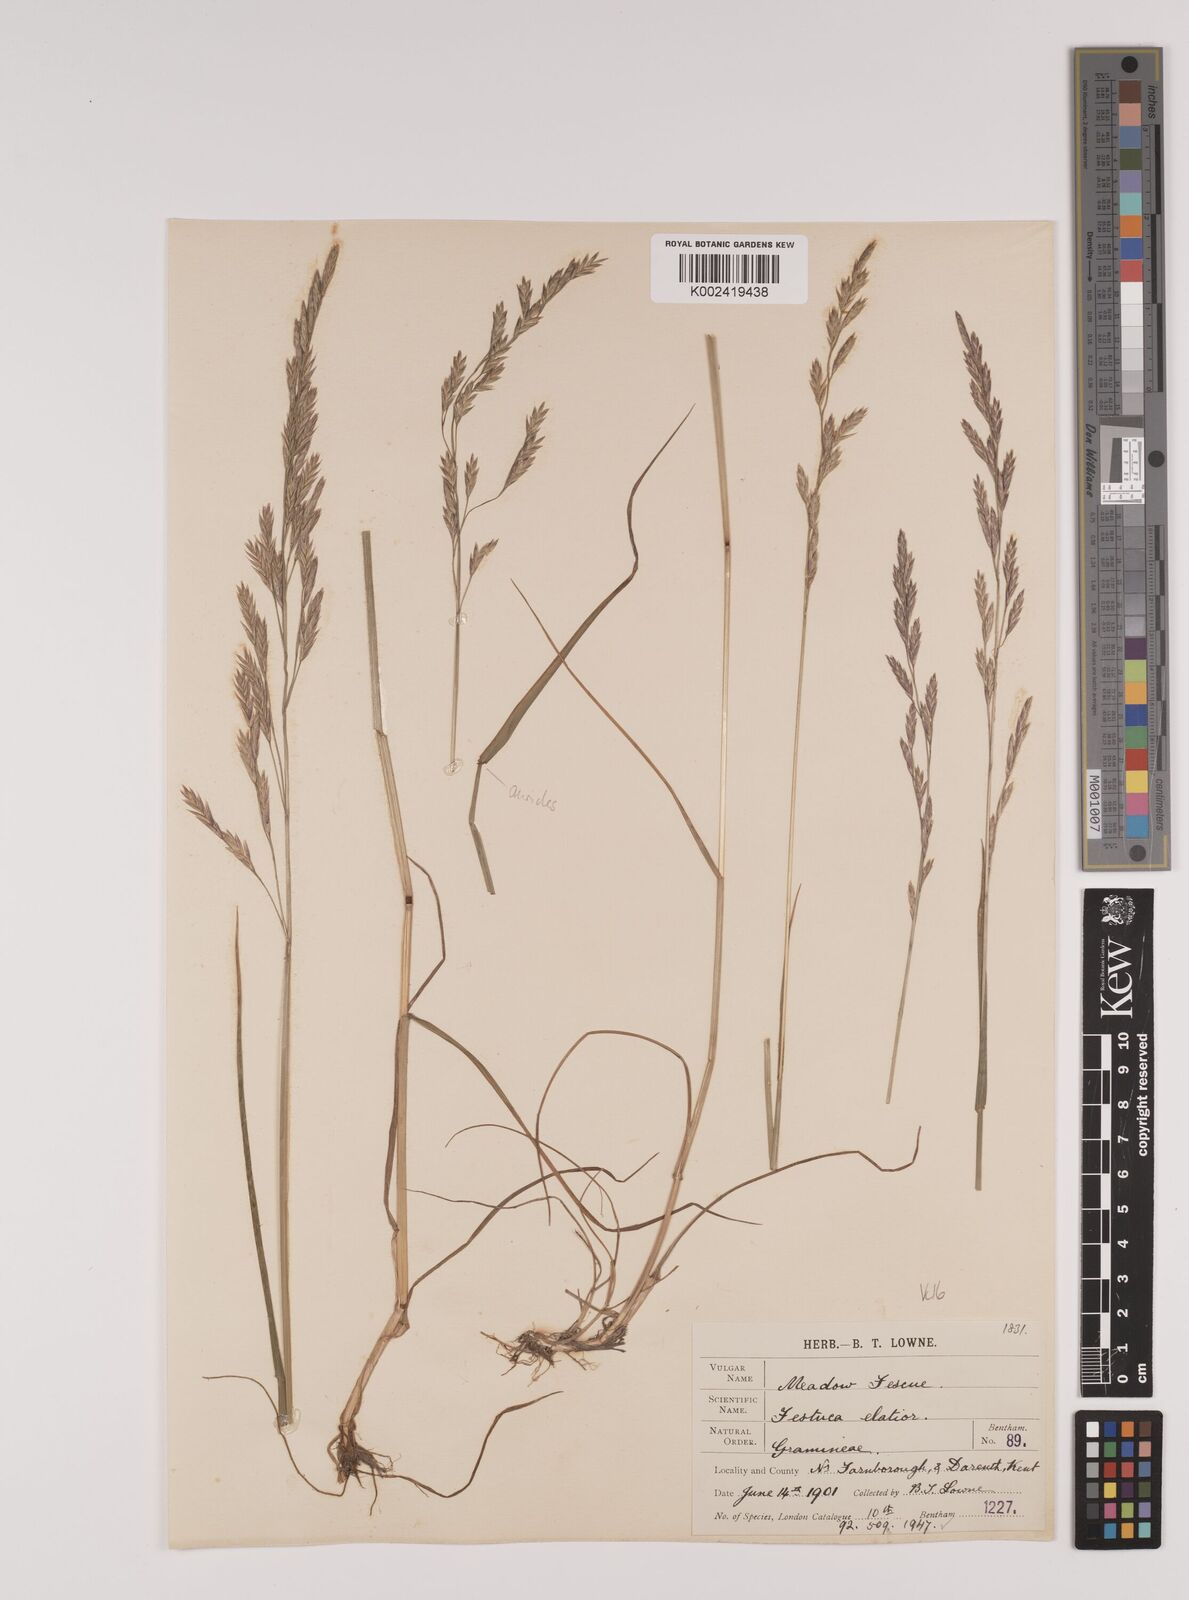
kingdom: Plantae
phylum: Tracheophyta
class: Liliopsida
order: Poales
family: Poaceae
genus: Lolium
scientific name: Lolium pratense
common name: Dover grass
